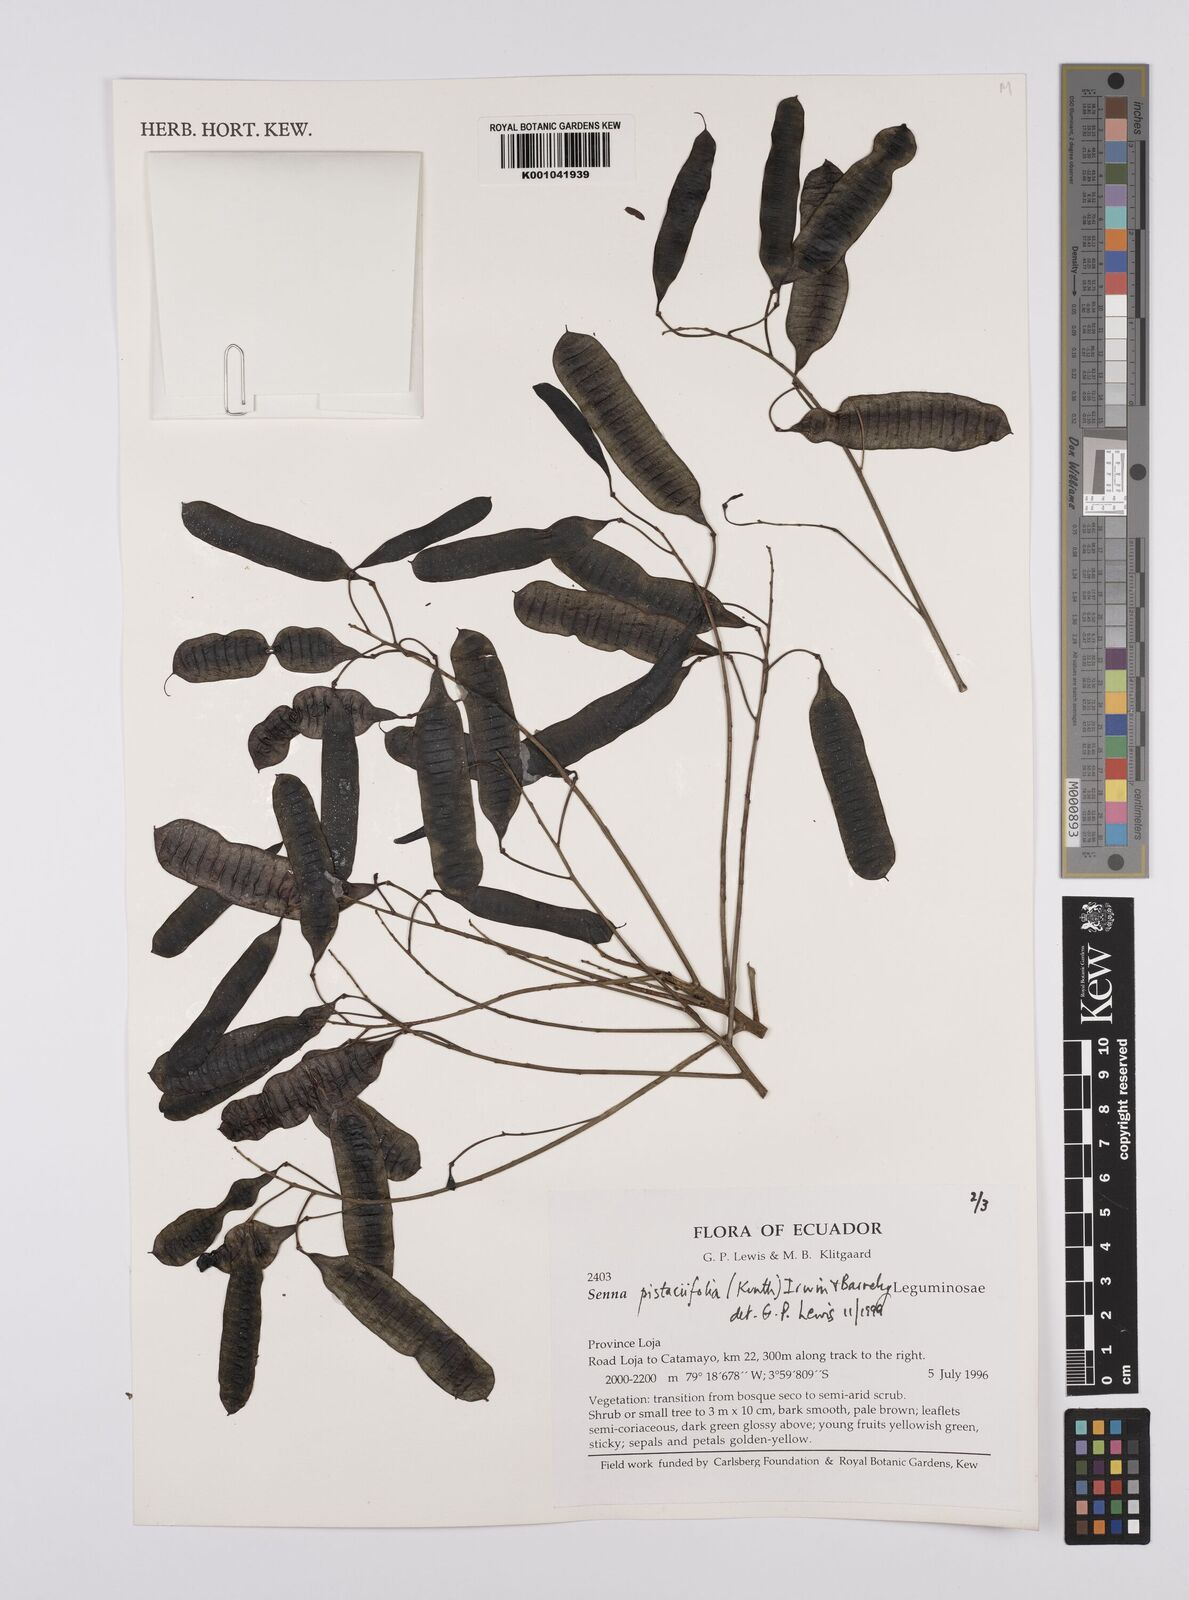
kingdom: Plantae
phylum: Tracheophyta
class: Magnoliopsida
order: Fabales
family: Fabaceae
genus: Senna
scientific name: Senna pistaciifolia
